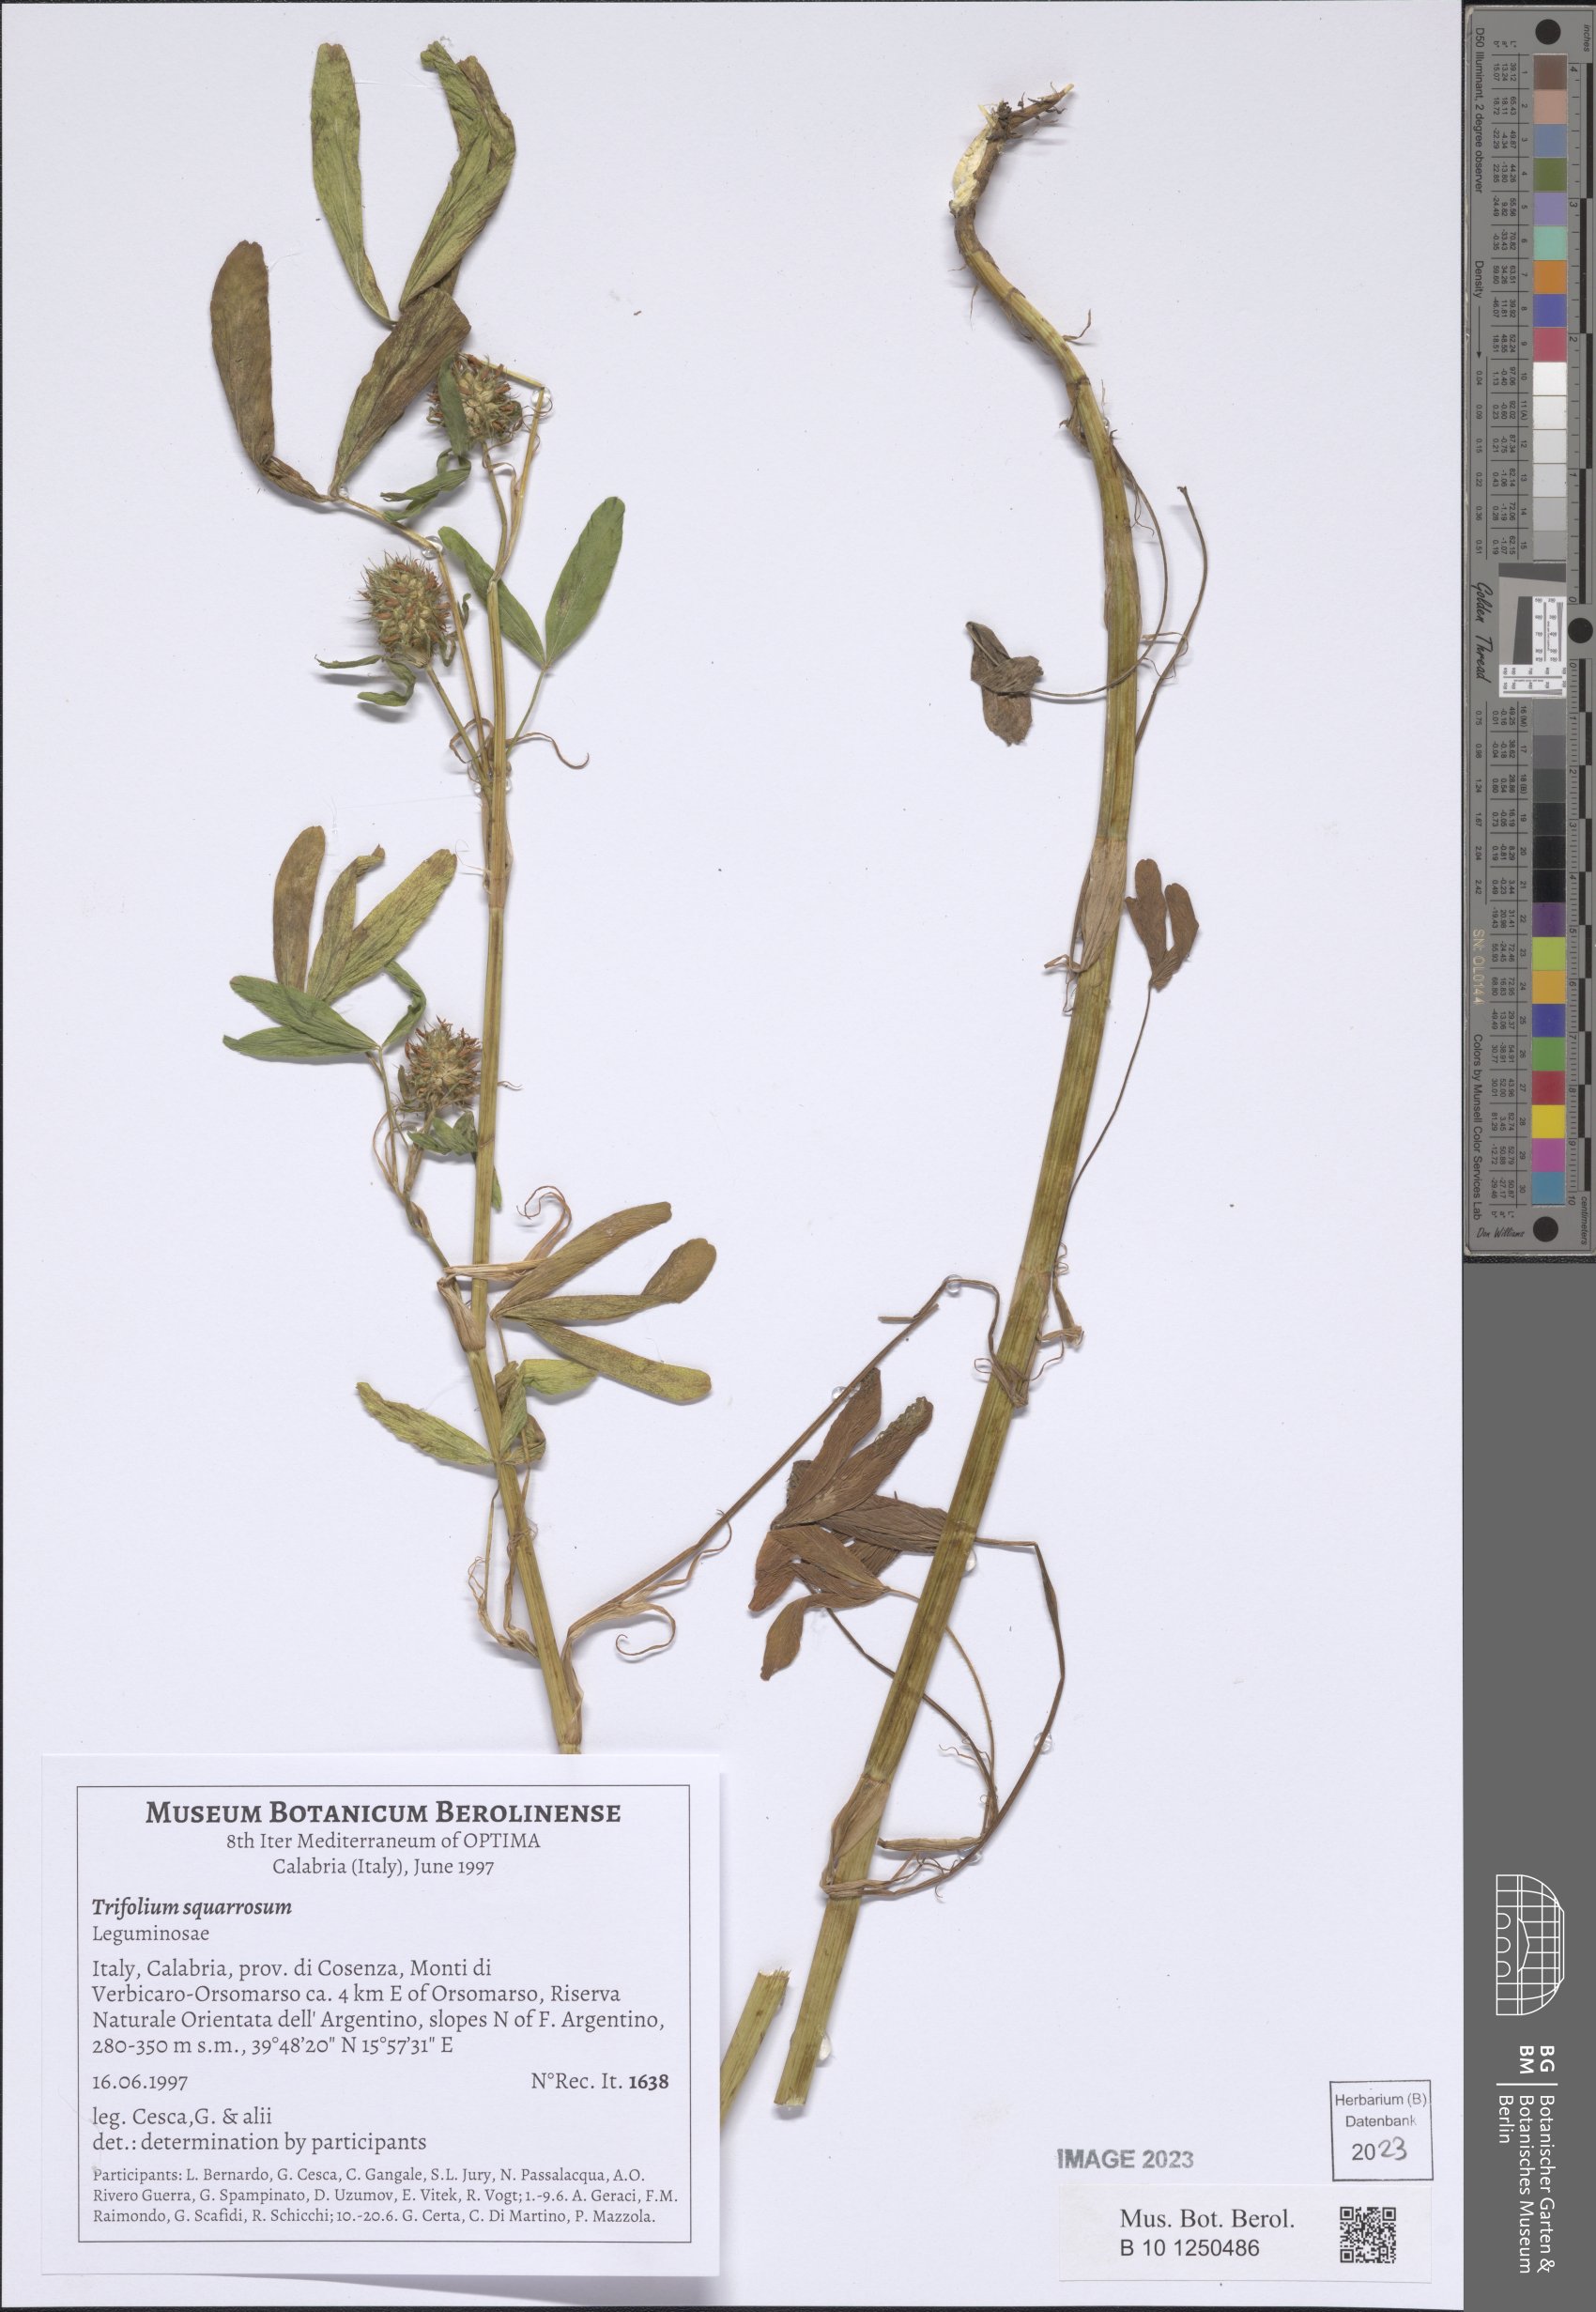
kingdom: Plantae
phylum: Tracheophyta
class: Magnoliopsida
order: Fabales
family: Fabaceae
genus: Trifolium
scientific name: Trifolium squarrosum
